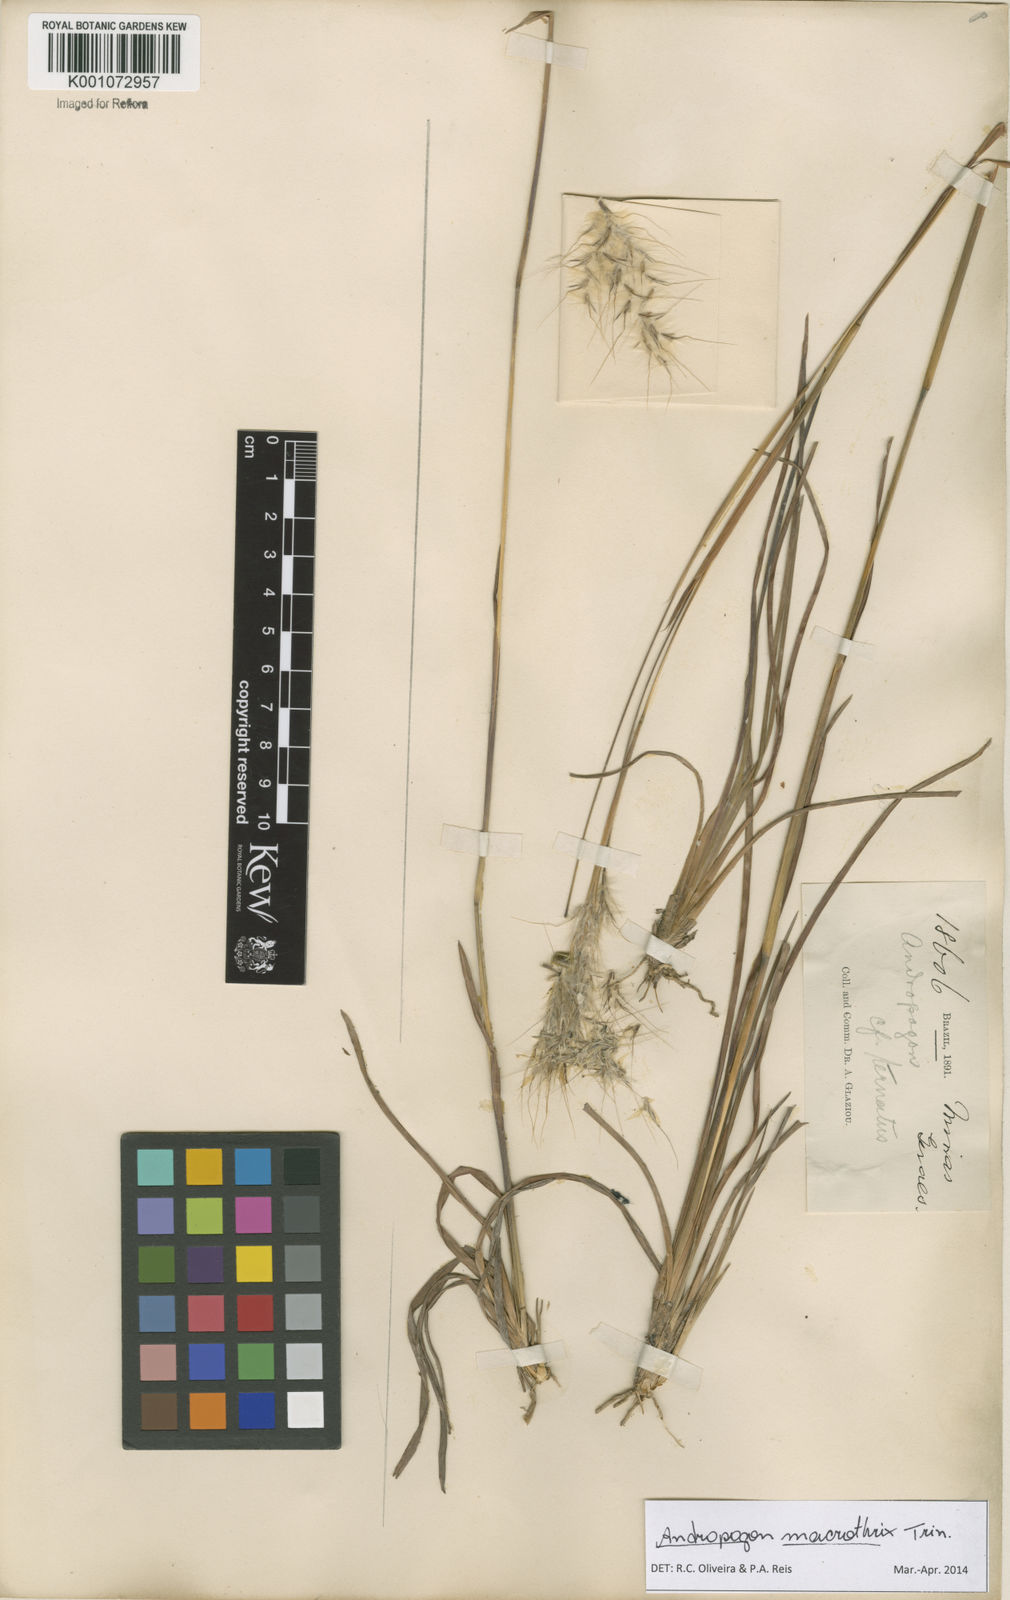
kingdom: Plantae
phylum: Tracheophyta
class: Liliopsida
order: Poales
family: Poaceae
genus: Andropogon
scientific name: Andropogon macrothrix
